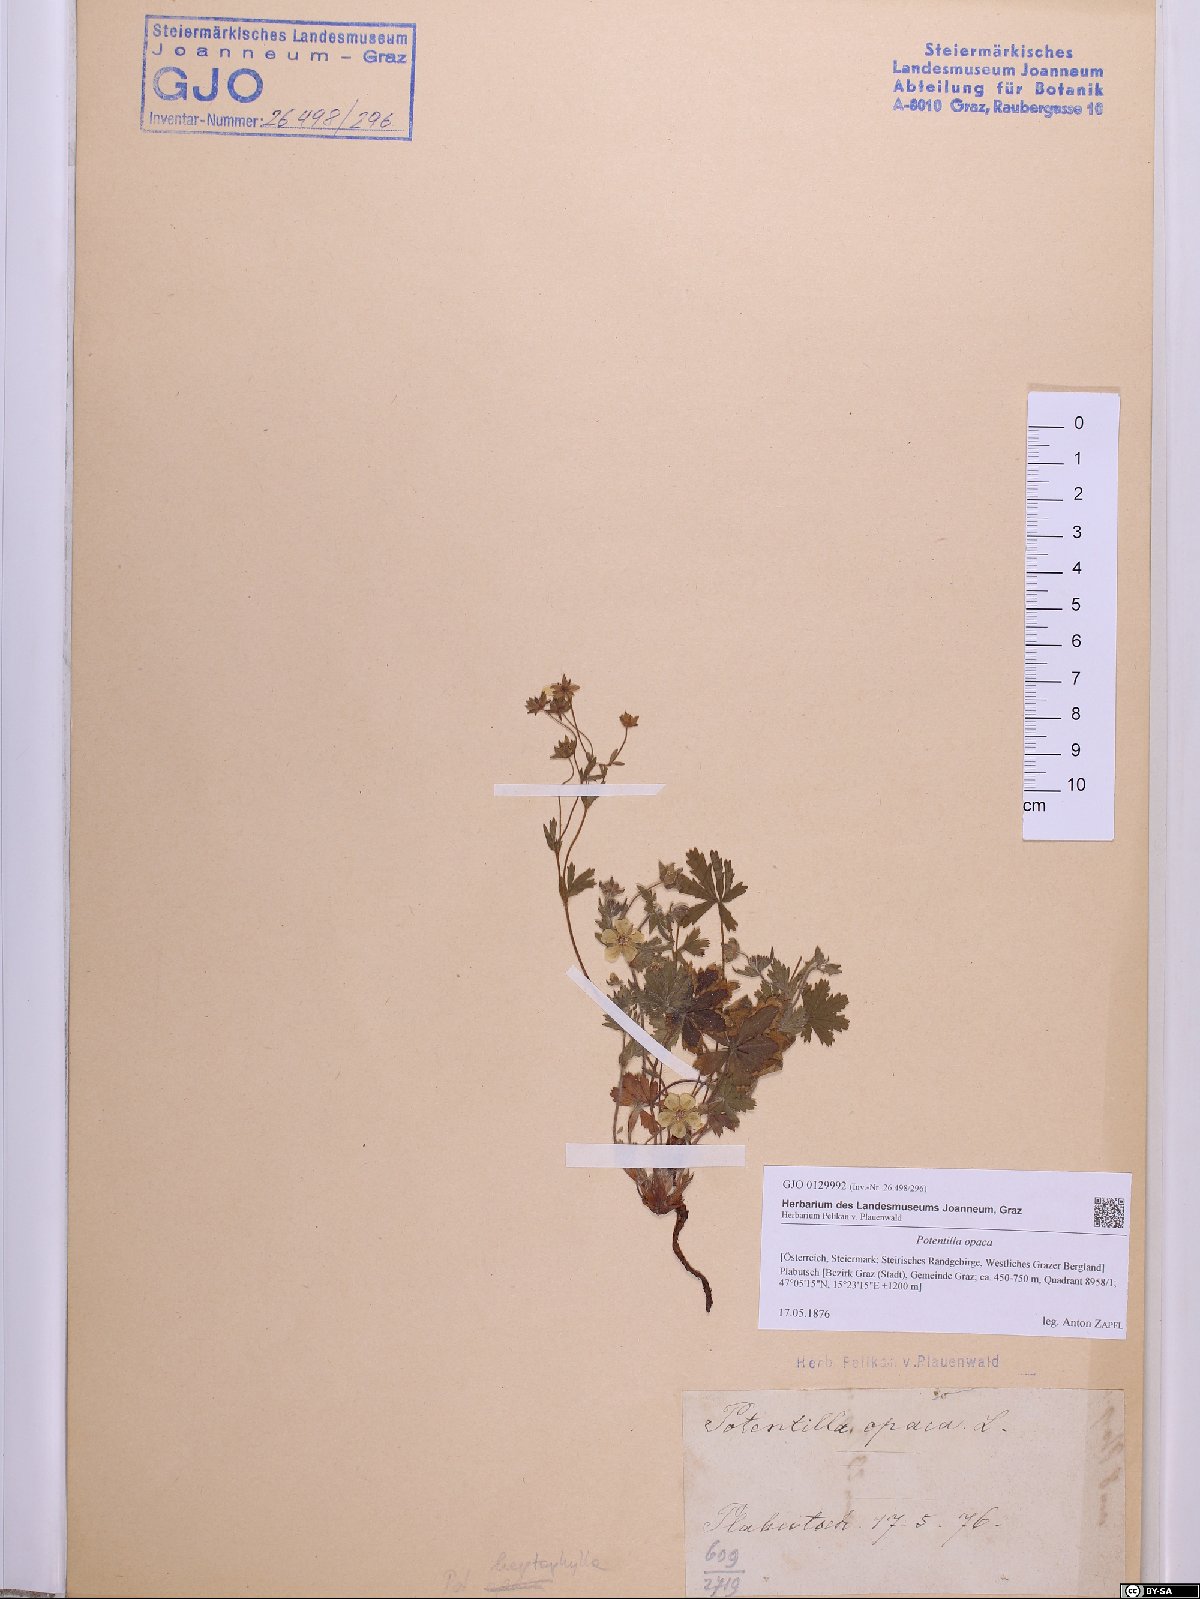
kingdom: Plantae
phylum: Tracheophyta
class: Magnoliopsida
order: Rosales
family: Rosaceae
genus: Potentilla
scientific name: Potentilla
